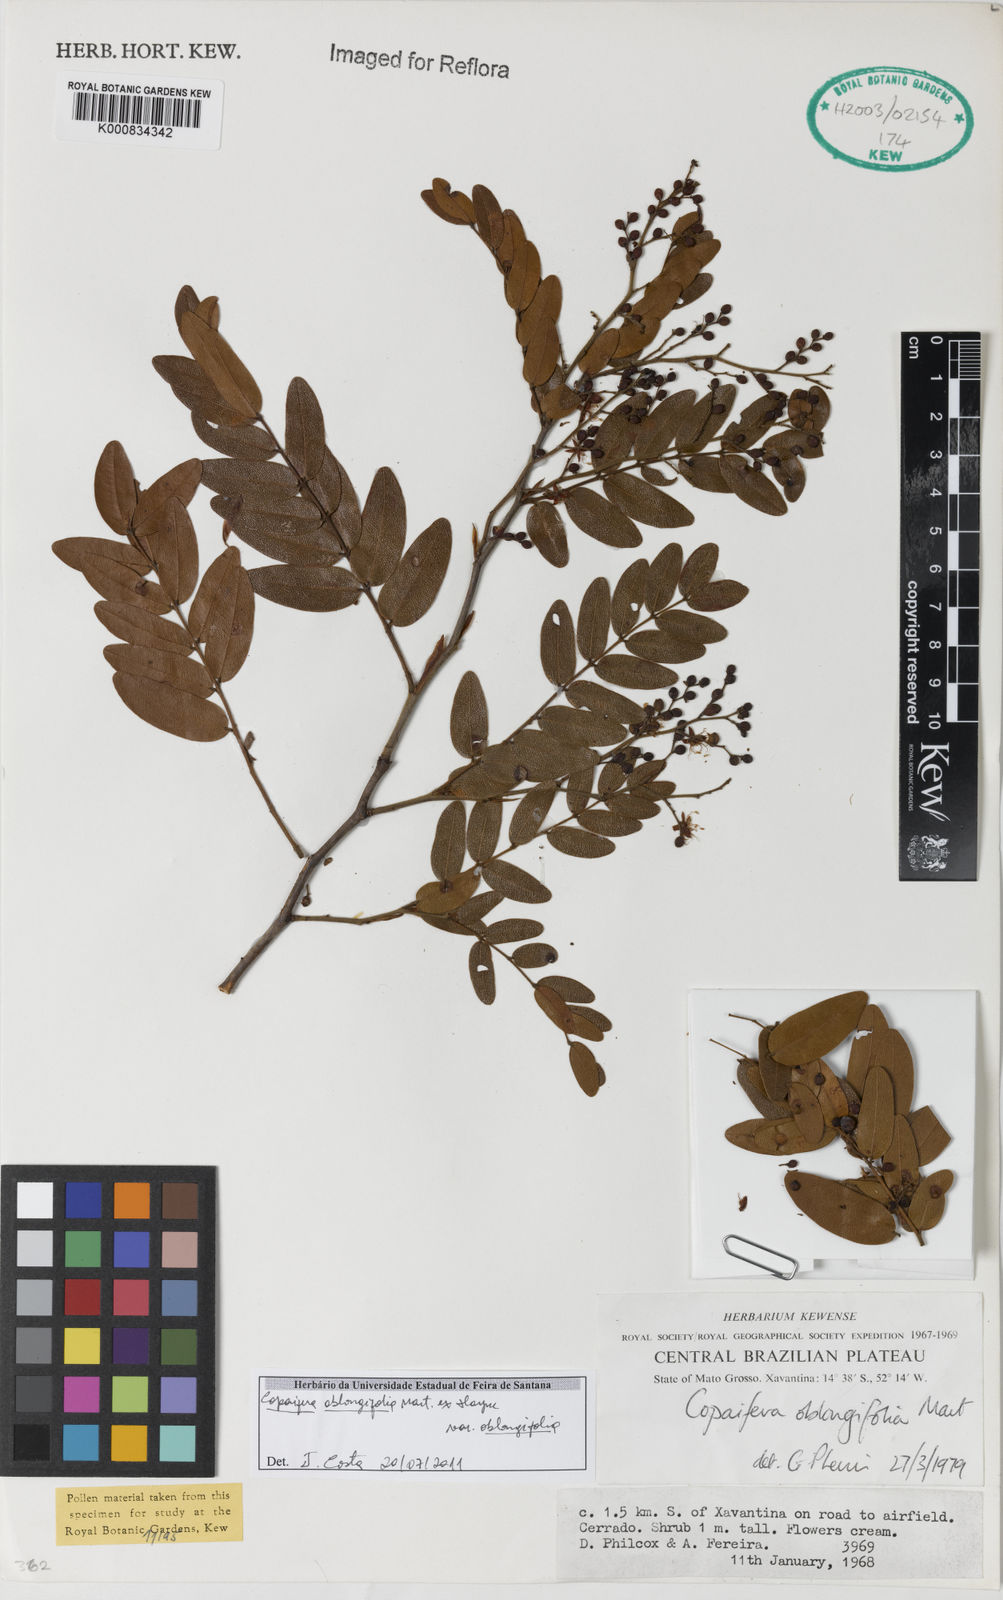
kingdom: Plantae
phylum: Tracheophyta
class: Magnoliopsida
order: Fabales
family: Fabaceae
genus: Copaifera
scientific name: Copaifera
